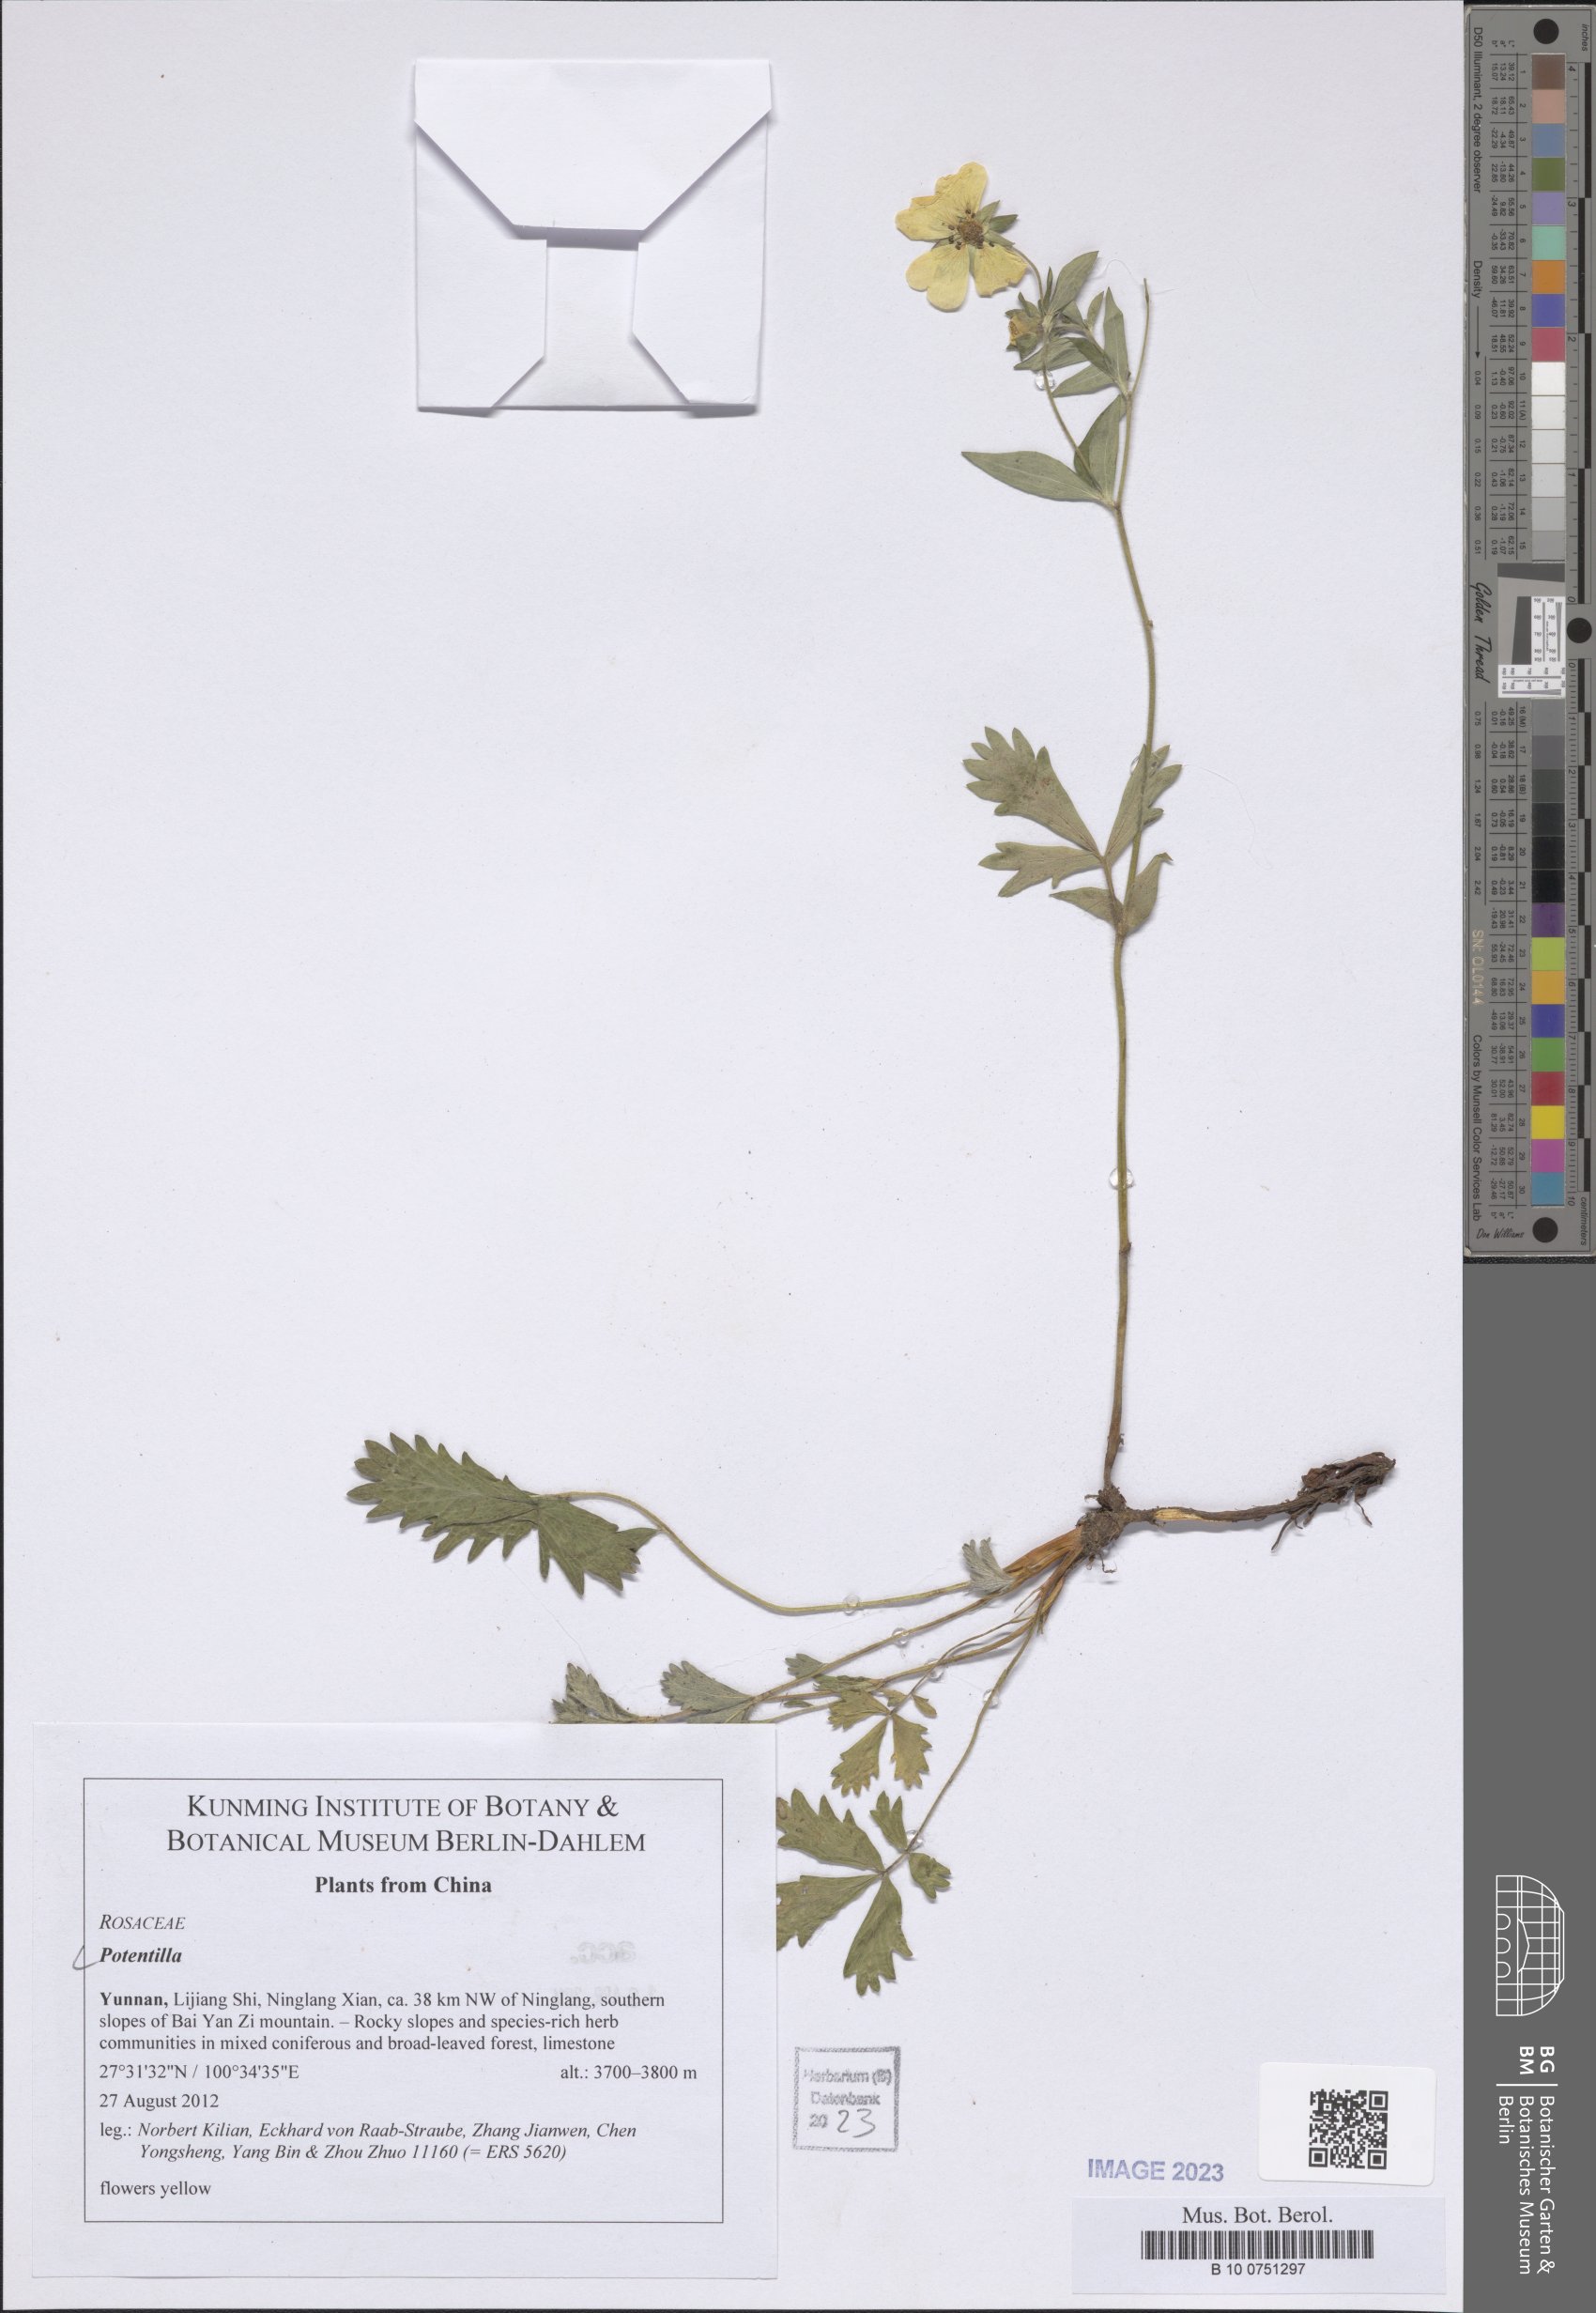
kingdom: Plantae
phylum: Tracheophyta
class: Magnoliopsida
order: Rosales
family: Rosaceae
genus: Potentilla
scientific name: Potentilla
